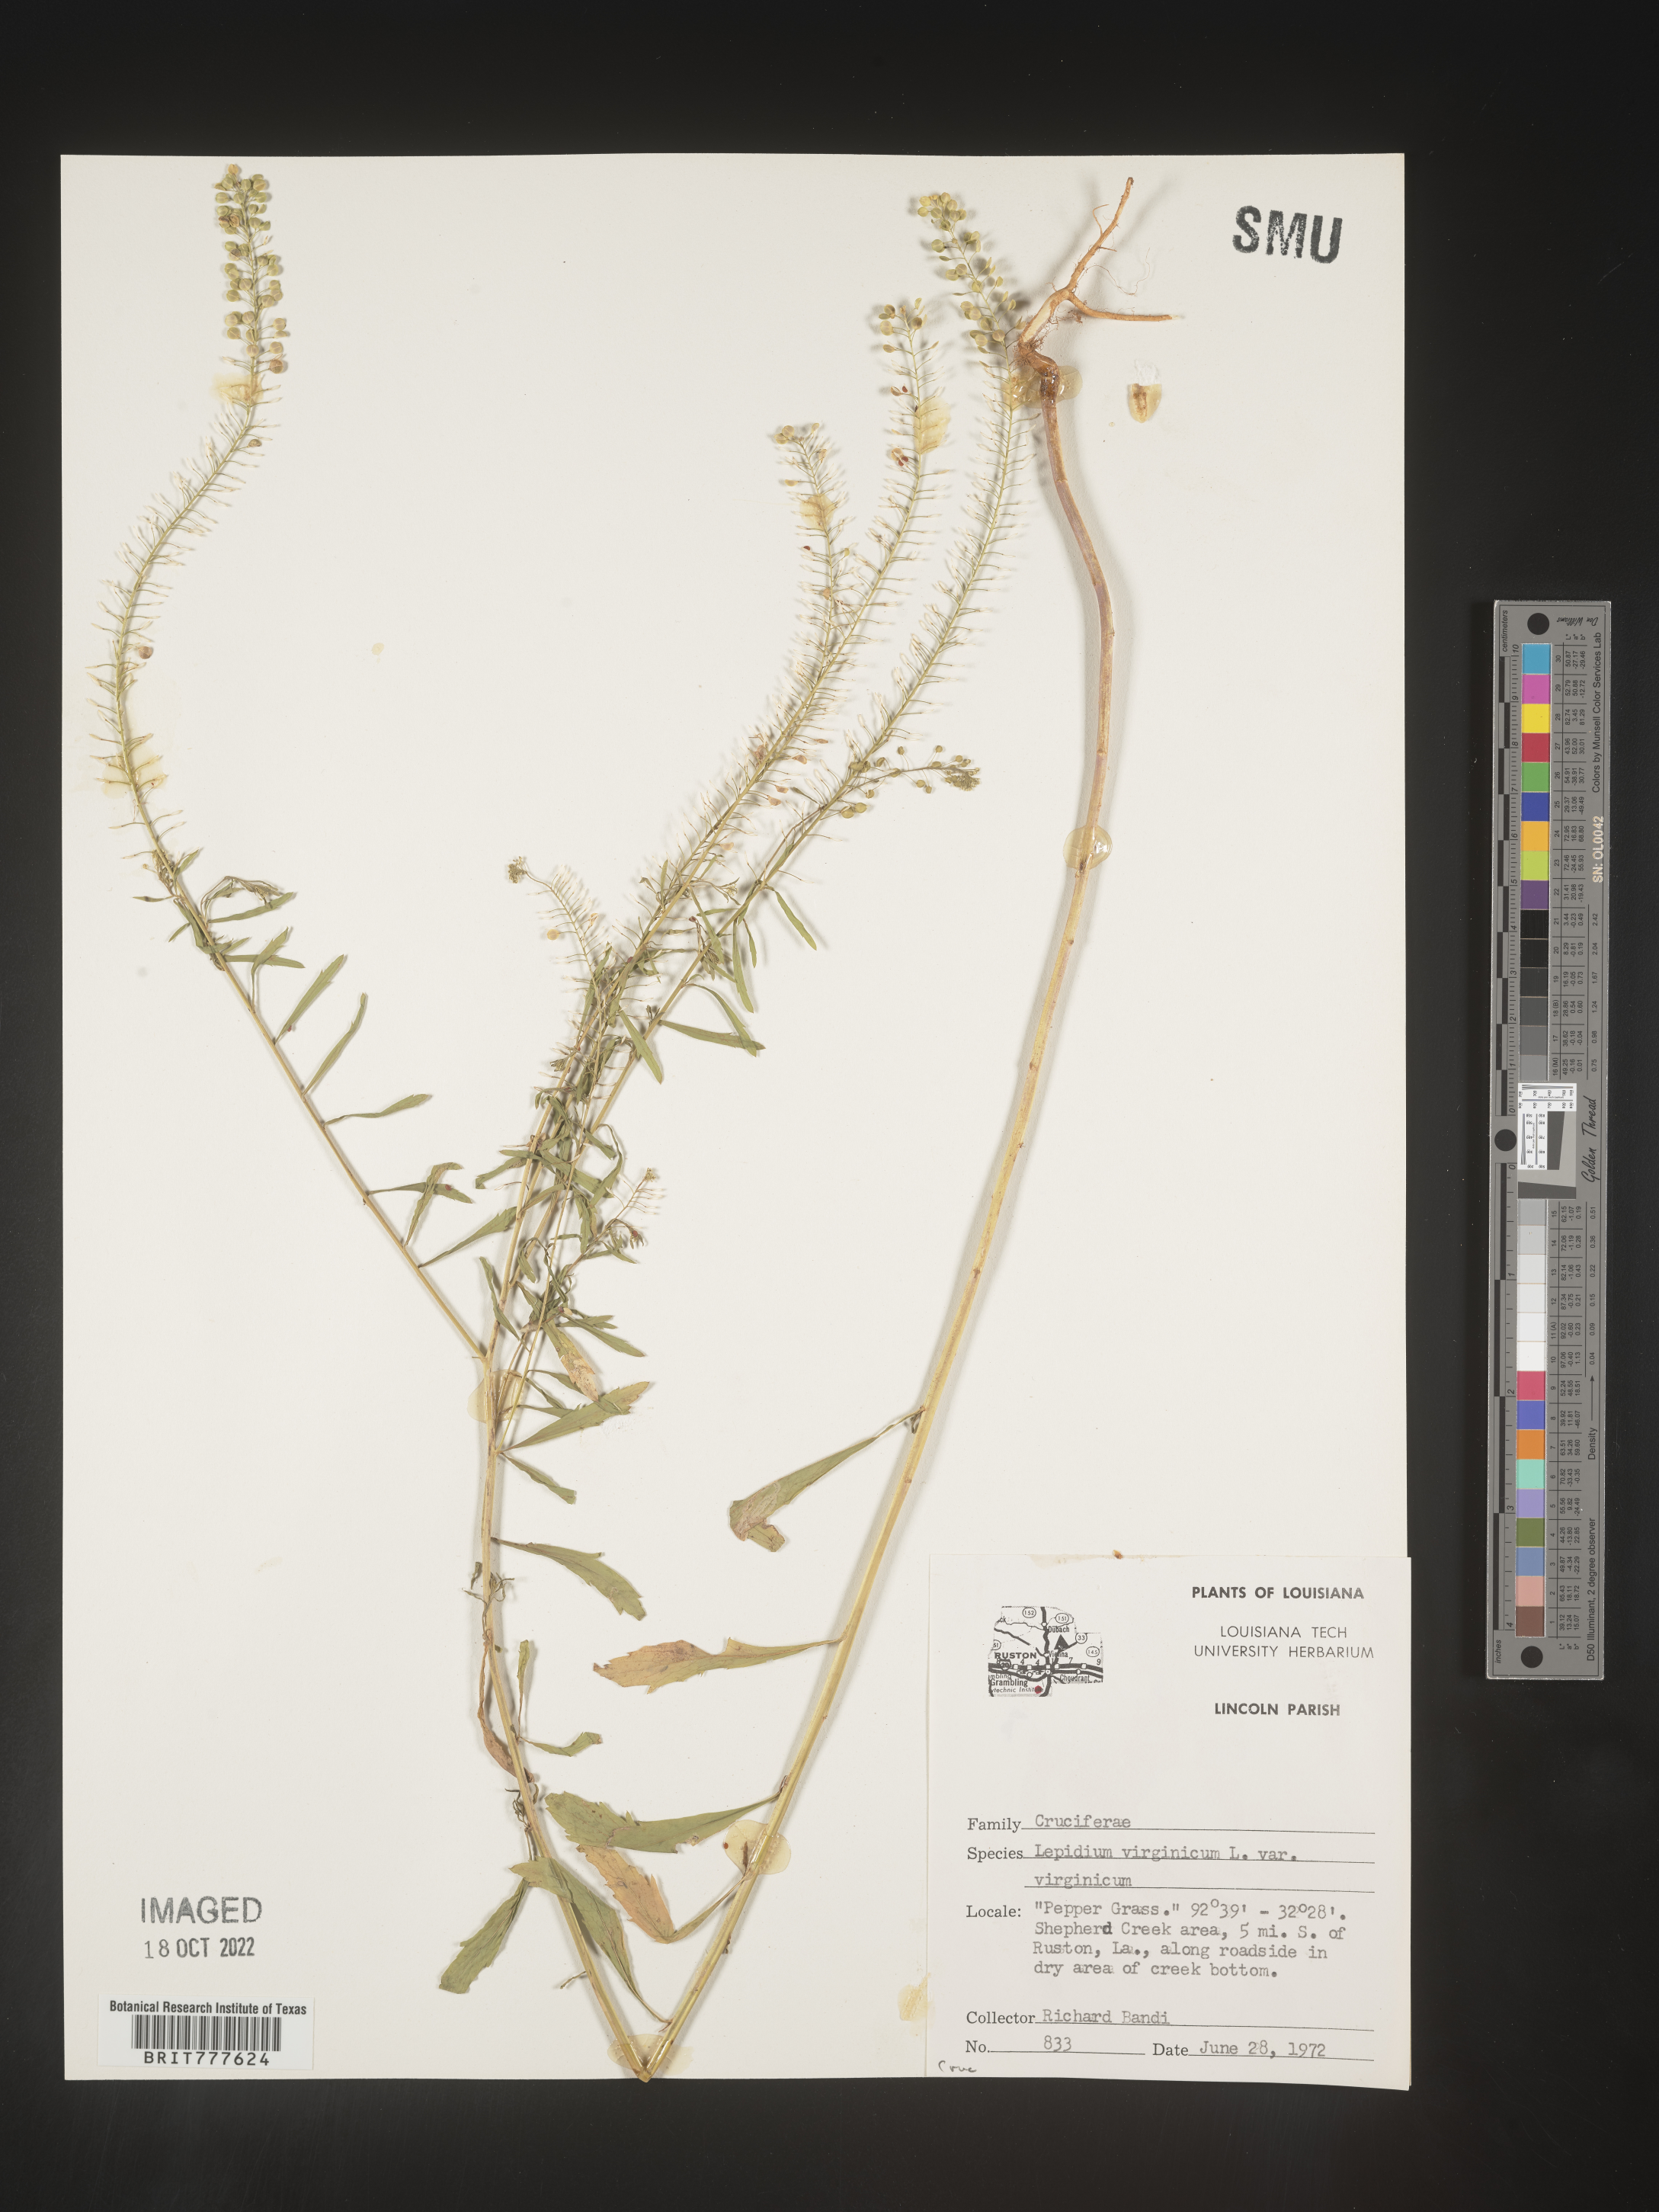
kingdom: Plantae
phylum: Tracheophyta
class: Magnoliopsida
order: Brassicales
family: Brassicaceae
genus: Lepidium
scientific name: Lepidium virginicum
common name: Least pepperwort
